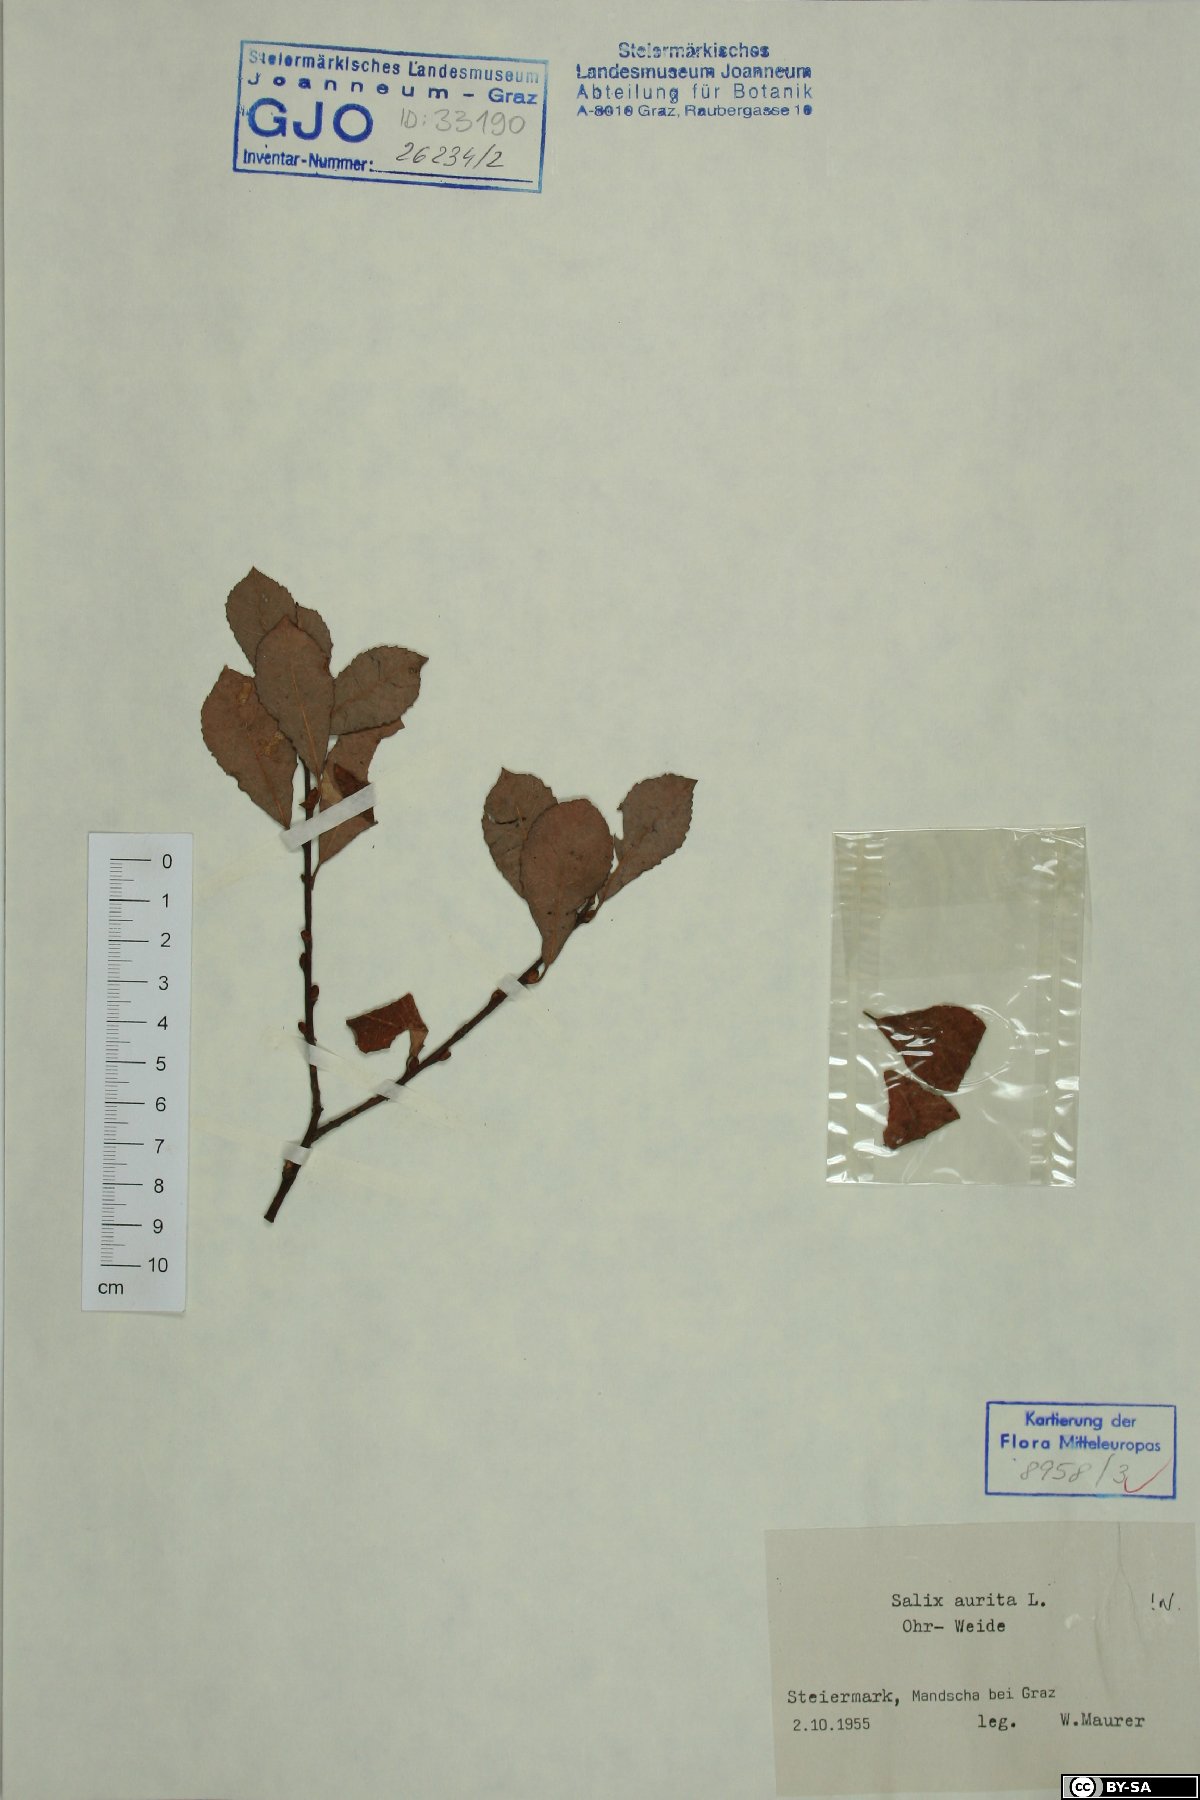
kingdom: Plantae
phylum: Tracheophyta
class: Magnoliopsida
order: Malpighiales
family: Salicaceae
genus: Salix
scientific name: Salix aurita
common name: Eared willow
